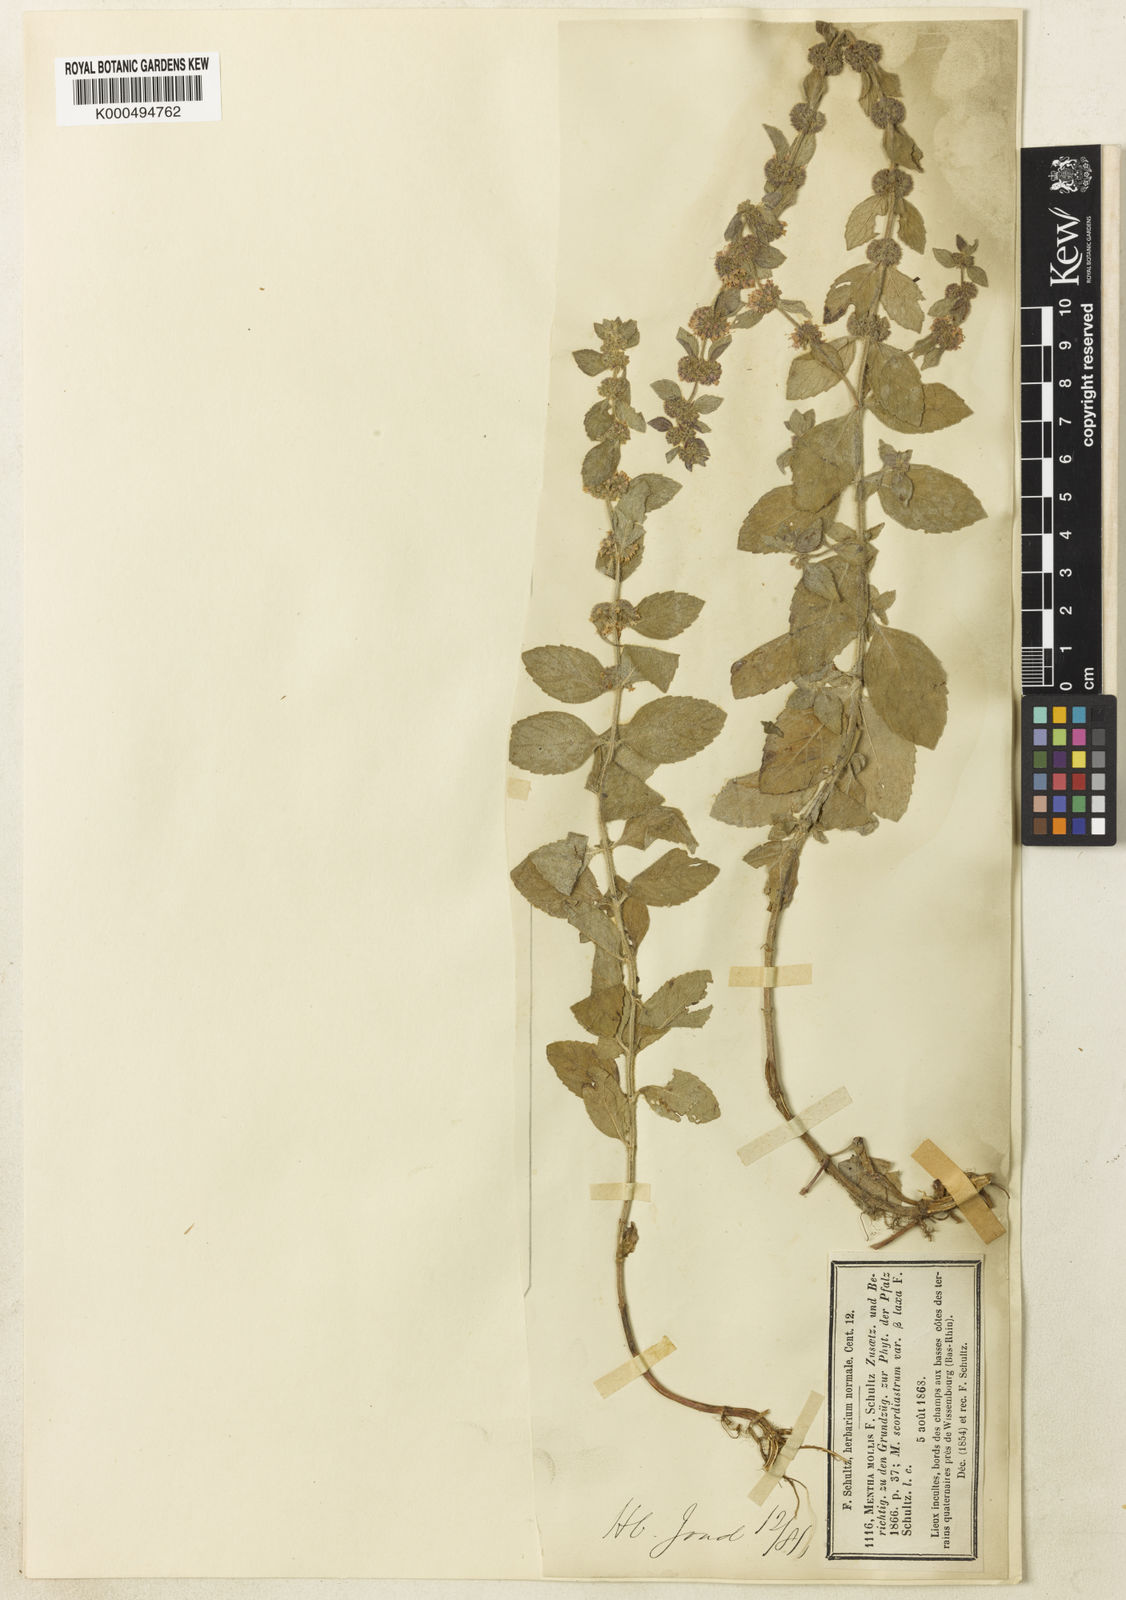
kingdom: Plantae
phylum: Tracheophyta
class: Magnoliopsida
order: Lamiales
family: Lamiaceae
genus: Mentha
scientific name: Mentha arvensis
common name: Corn mint
